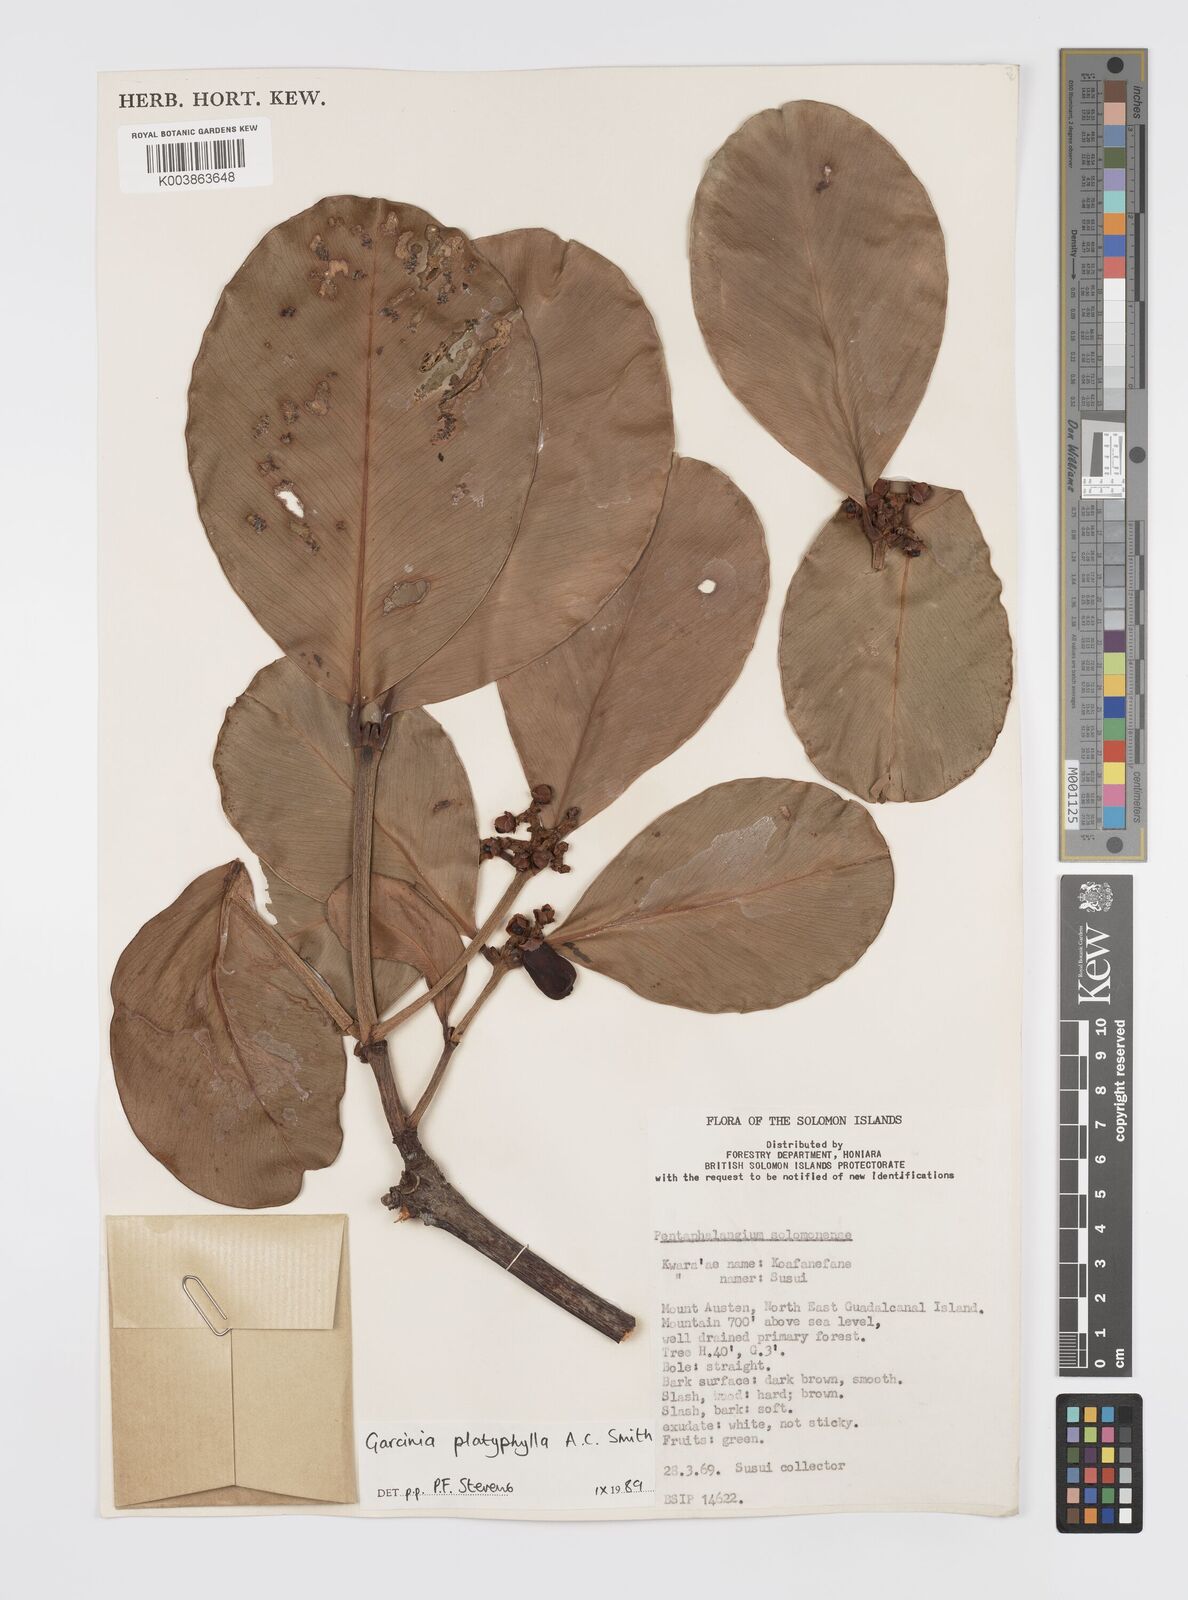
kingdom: Plantae
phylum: Tracheophyta
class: Magnoliopsida
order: Malpighiales
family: Clusiaceae
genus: Garcinia
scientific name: Garcinia platyphylla
